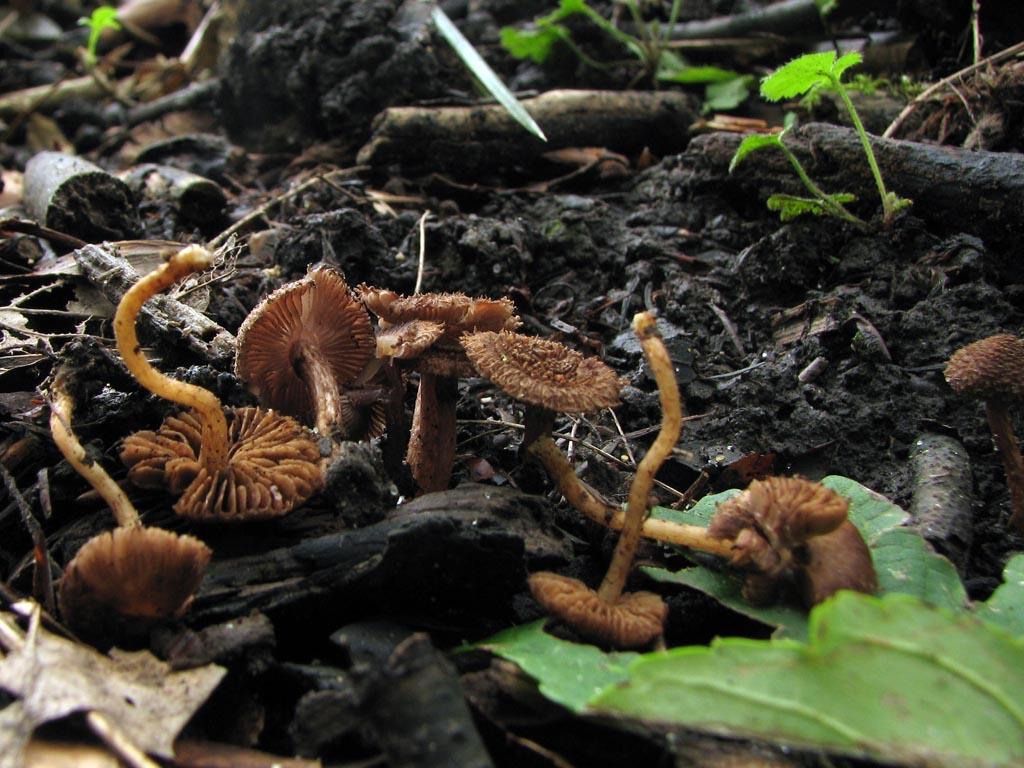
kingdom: Fungi
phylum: Basidiomycota
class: Agaricomycetes
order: Agaricales
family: Inocybaceae
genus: Inocybe
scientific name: Inocybe cincinnata
